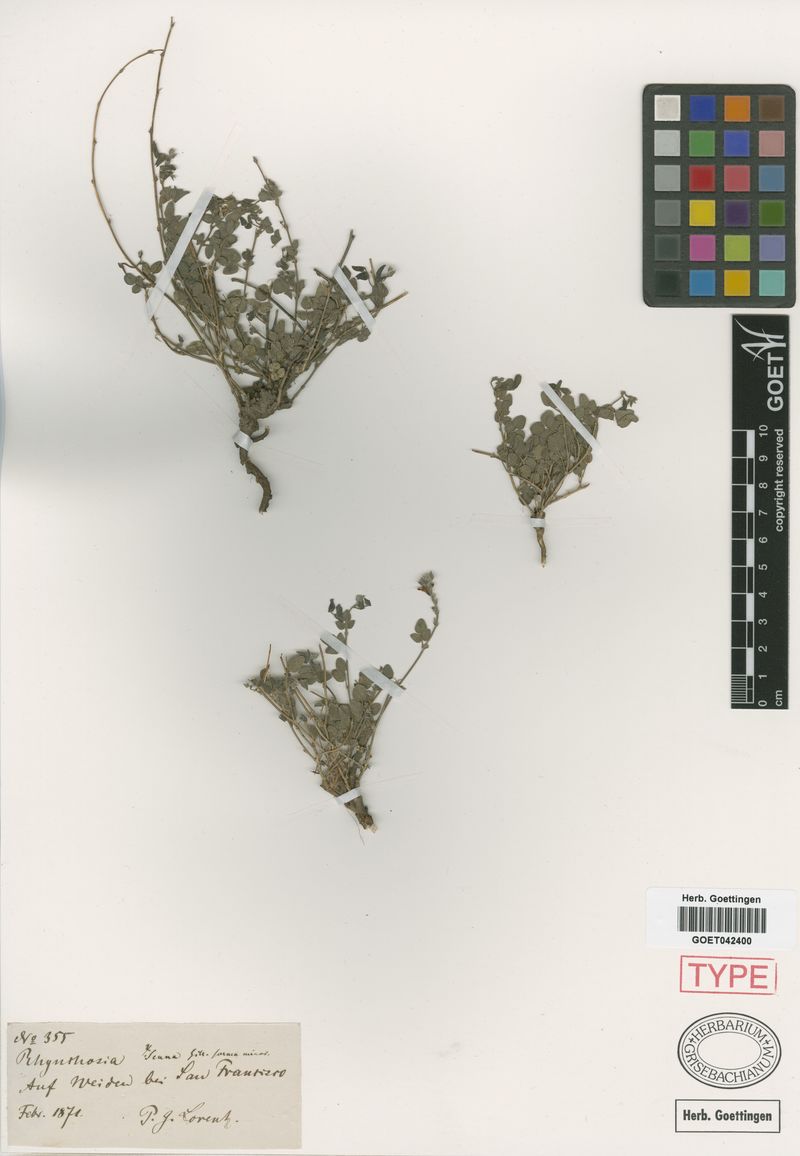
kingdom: Plantae
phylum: Tracheophyta
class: Magnoliopsida
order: Fabales
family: Fabaceae
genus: Rhynchosia
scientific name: Rhynchosia senna
